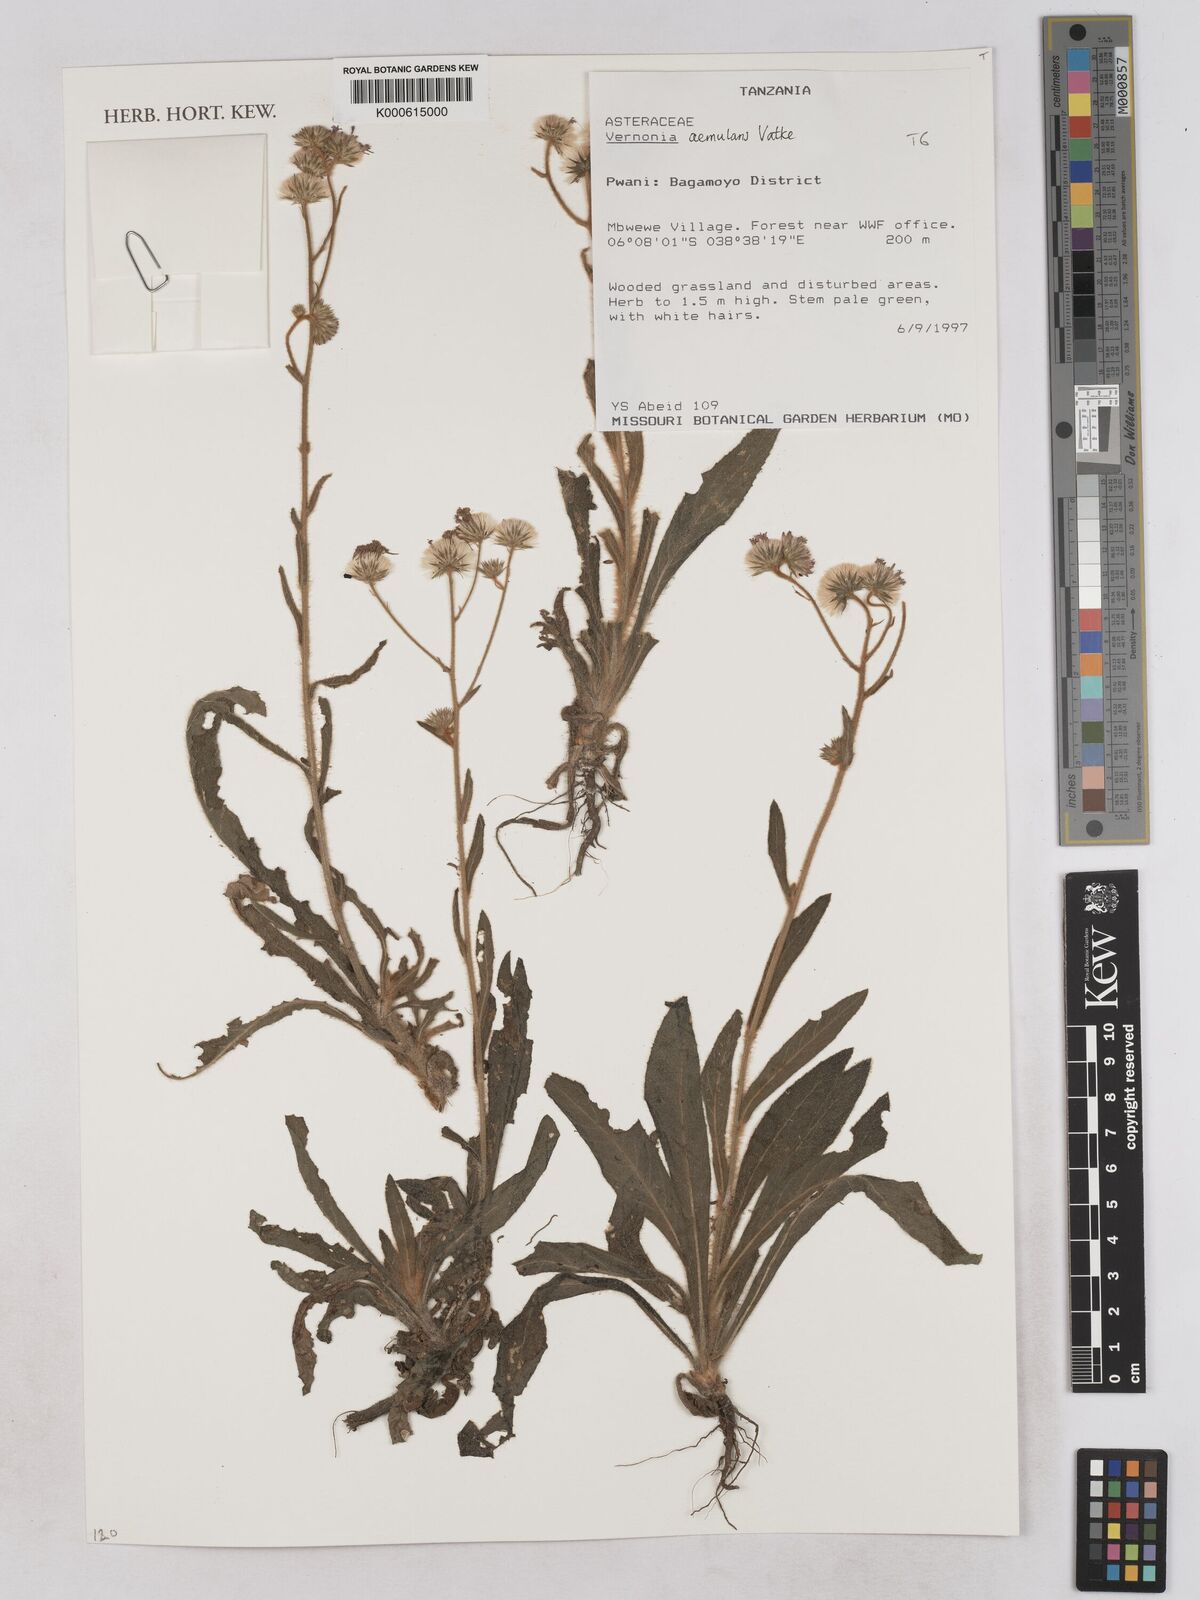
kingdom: Plantae
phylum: Tracheophyta
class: Magnoliopsida
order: Asterales
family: Asteraceae
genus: Vernoniastrum
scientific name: Vernoniastrum aemulans
